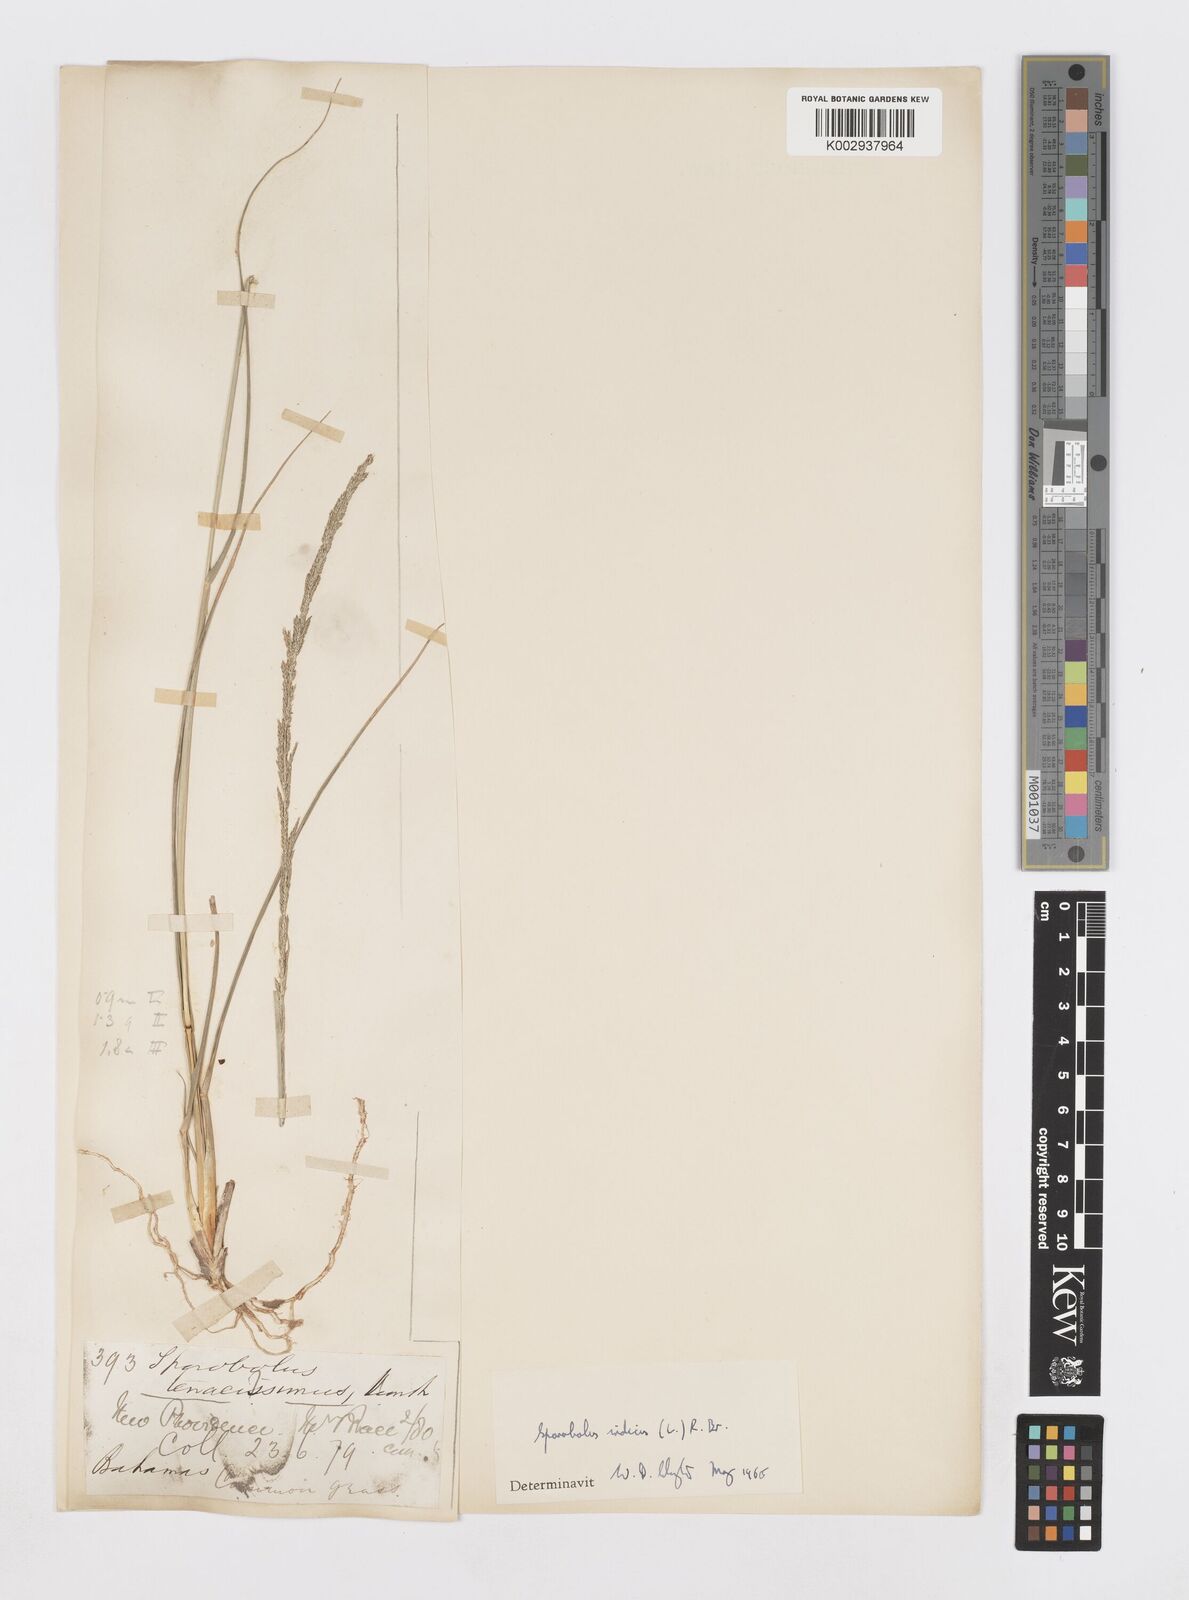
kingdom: Plantae
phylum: Tracheophyta
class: Liliopsida
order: Poales
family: Poaceae
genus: Sporobolus
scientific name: Sporobolus indicus
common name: Smut grass
